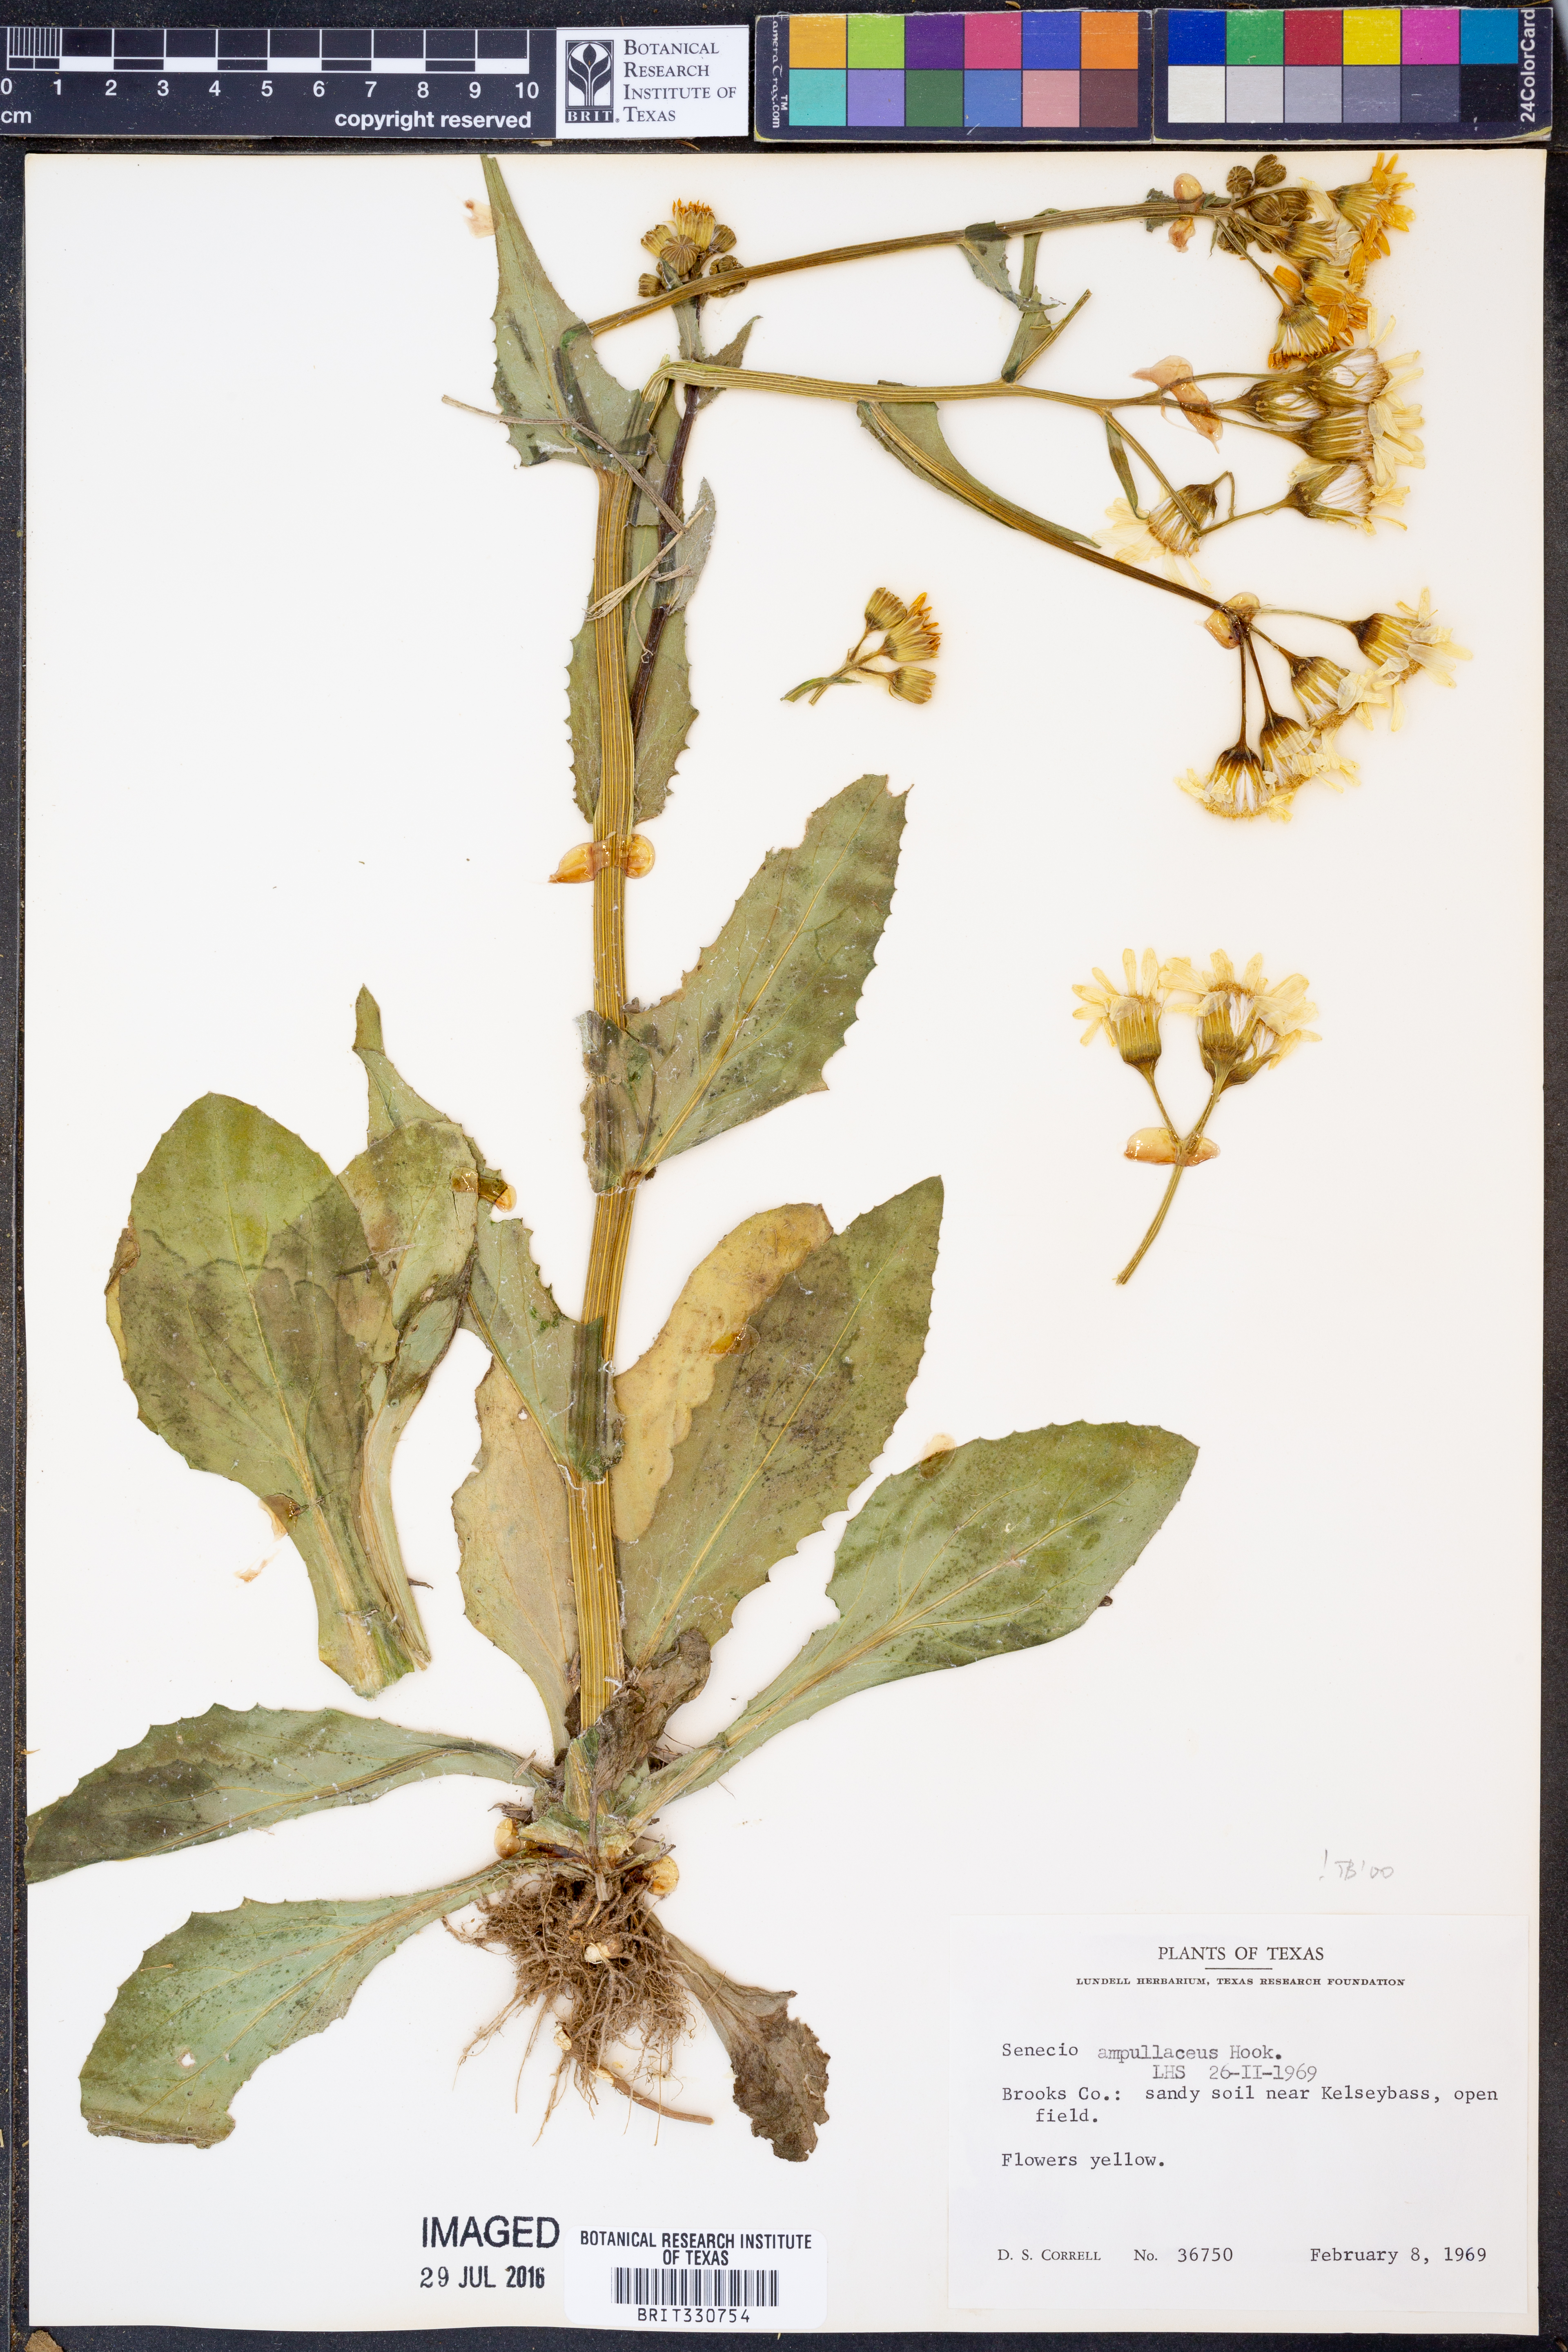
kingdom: Plantae
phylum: Tracheophyta
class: Magnoliopsida
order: Asterales
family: Asteraceae
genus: Senecio
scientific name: Senecio ampullaceus
